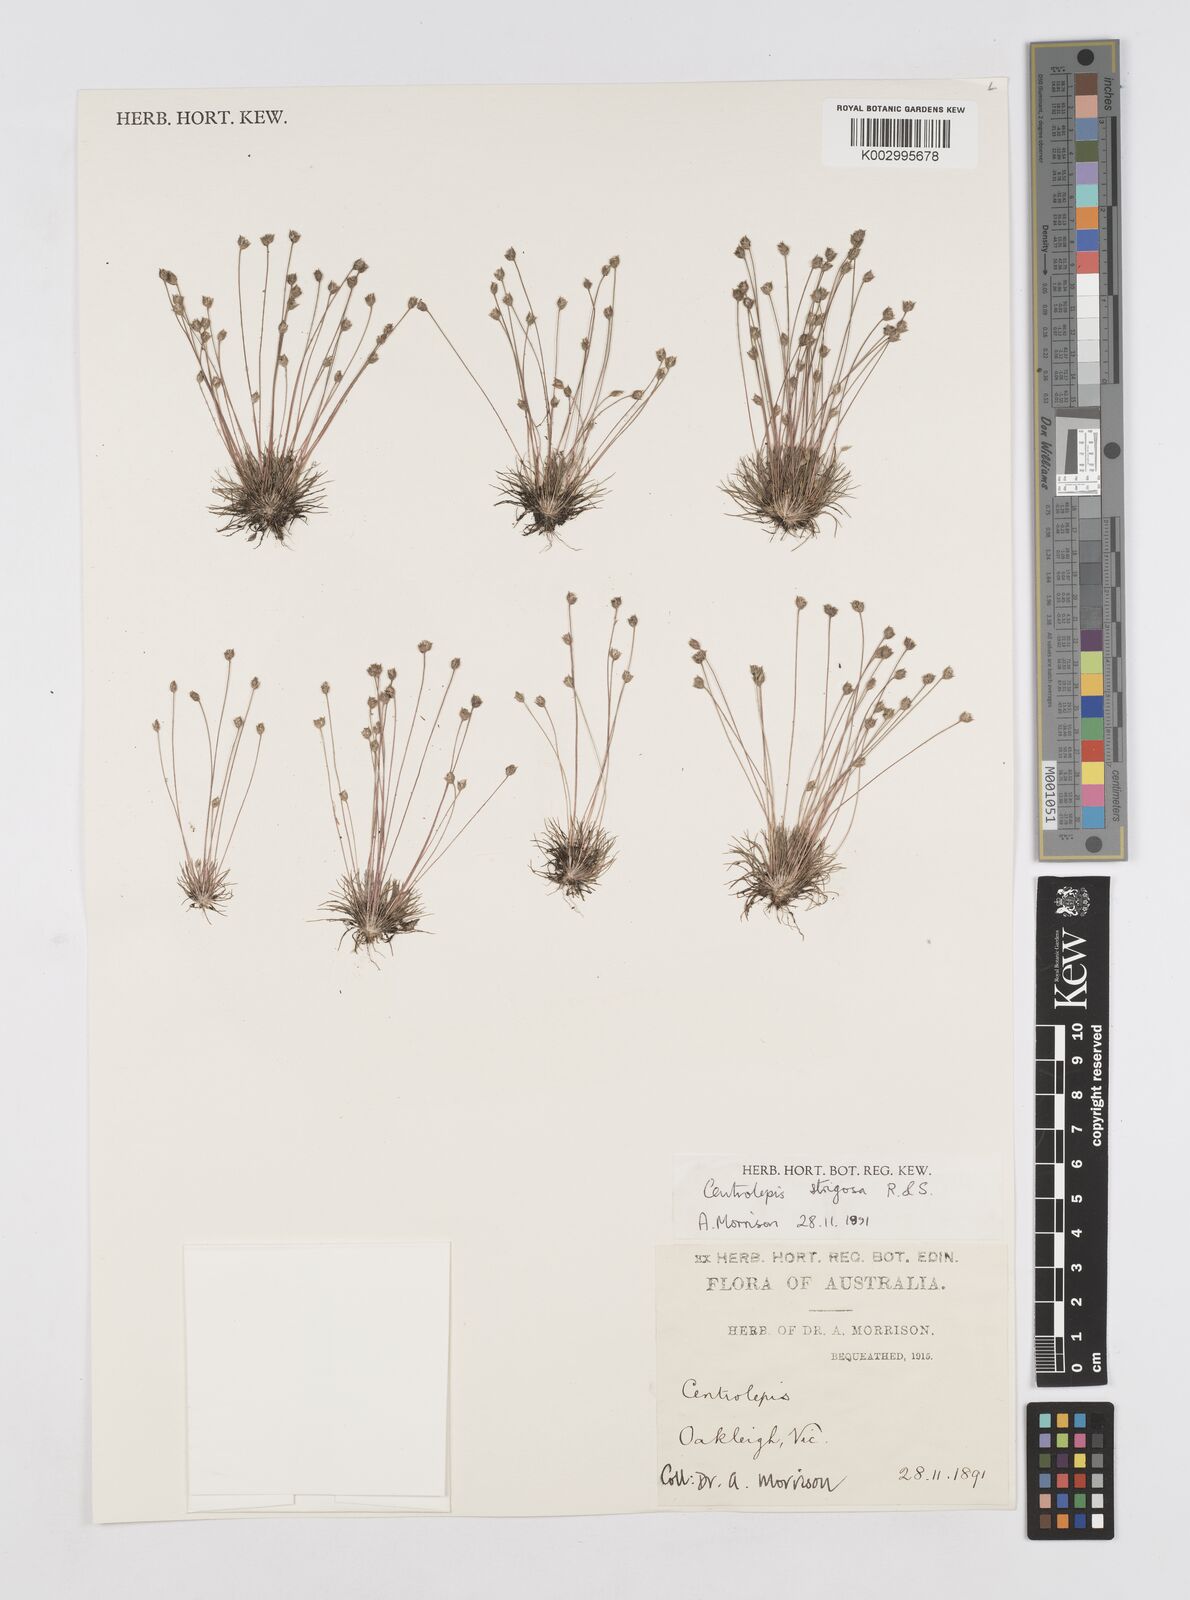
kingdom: Plantae
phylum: Tracheophyta
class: Liliopsida
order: Poales
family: Restionaceae
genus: Centrolepis
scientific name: Centrolepis strigosa
